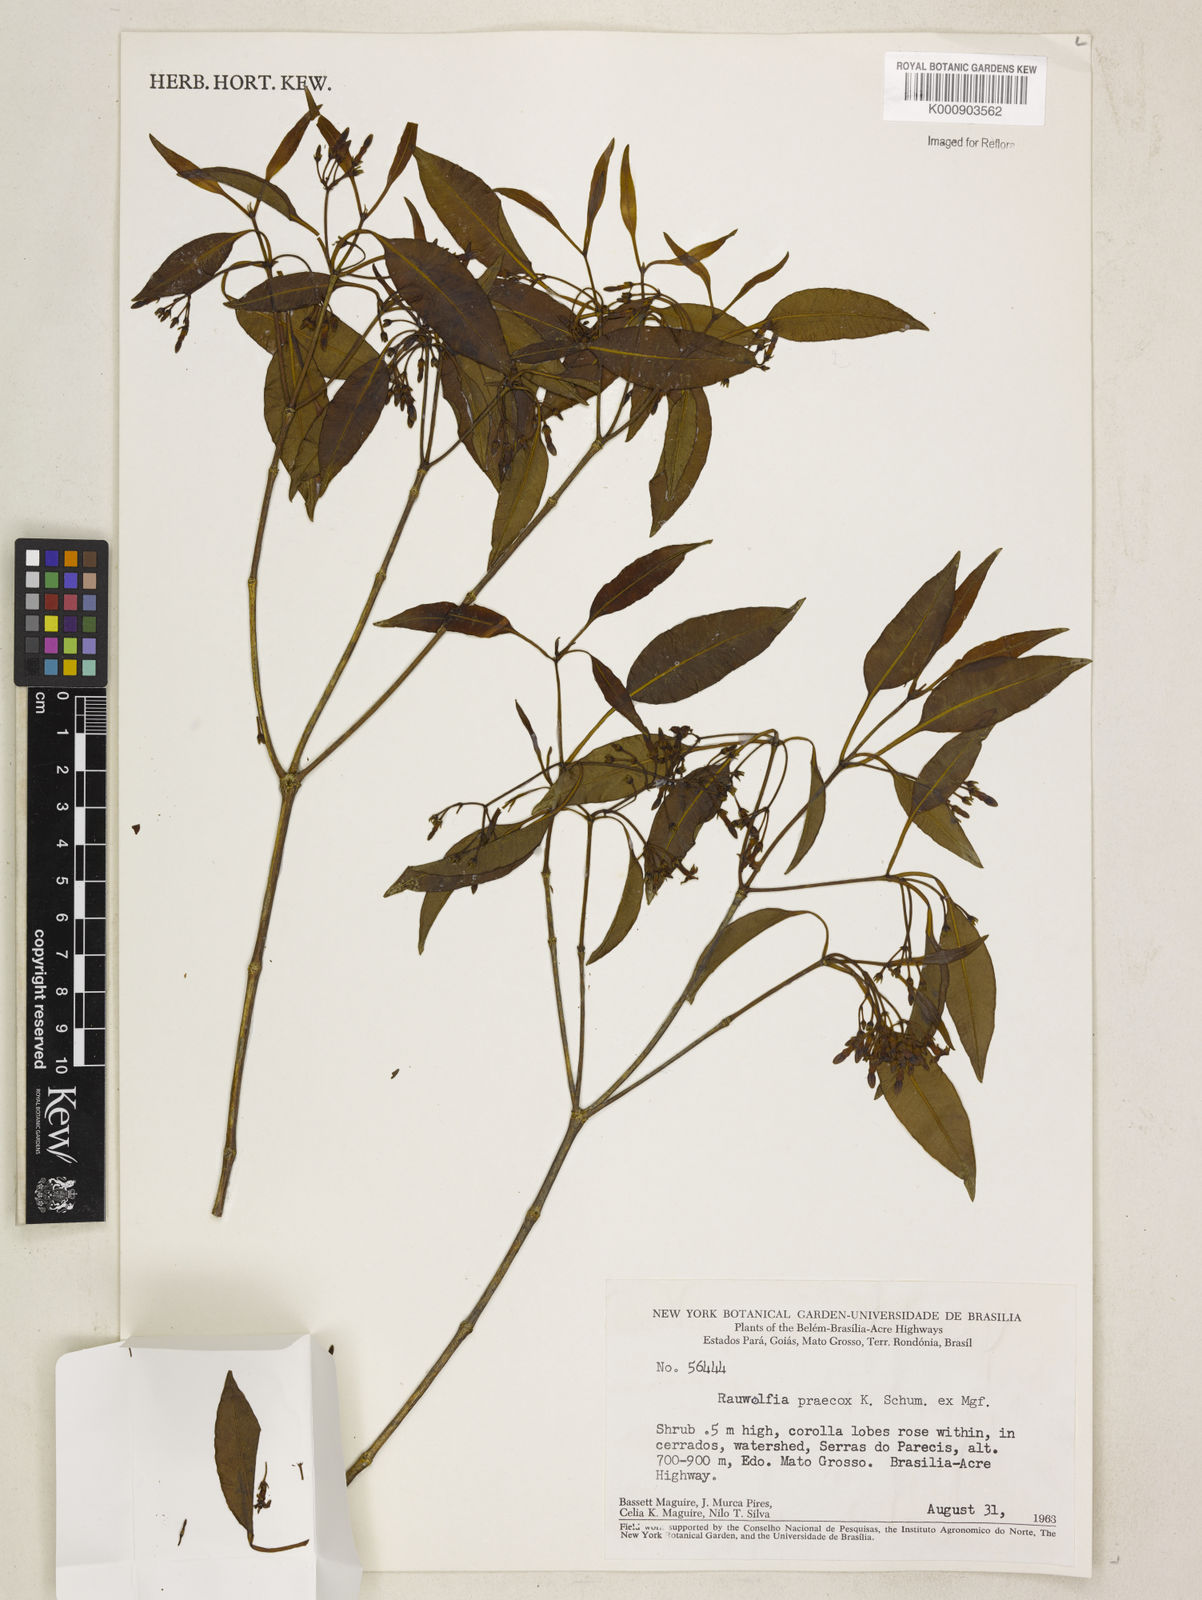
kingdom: Plantae
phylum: Tracheophyta
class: Magnoliopsida
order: Gentianales
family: Apocynaceae
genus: Rauvolfia
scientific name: Rauvolfia praecox
